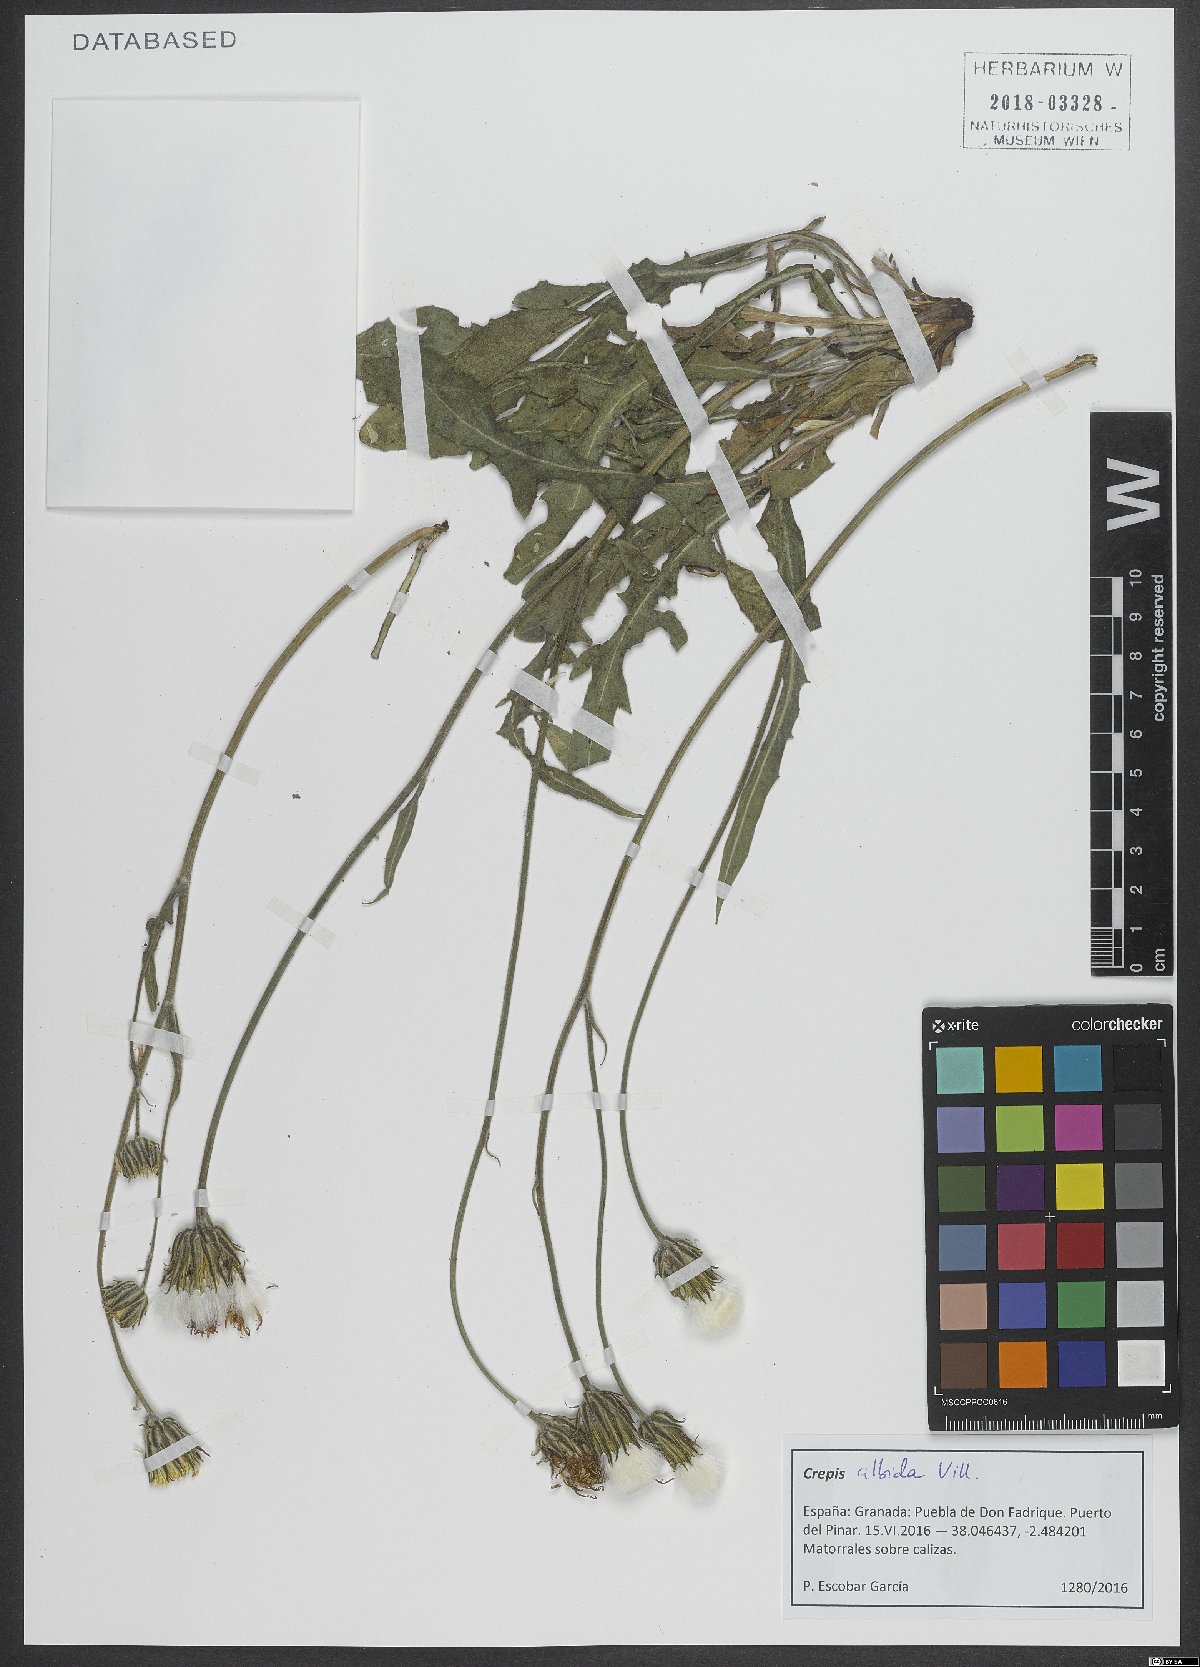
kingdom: Plantae
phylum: Tracheophyta
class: Magnoliopsida
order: Asterales
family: Asteraceae
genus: Crepis
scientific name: Crepis albida
